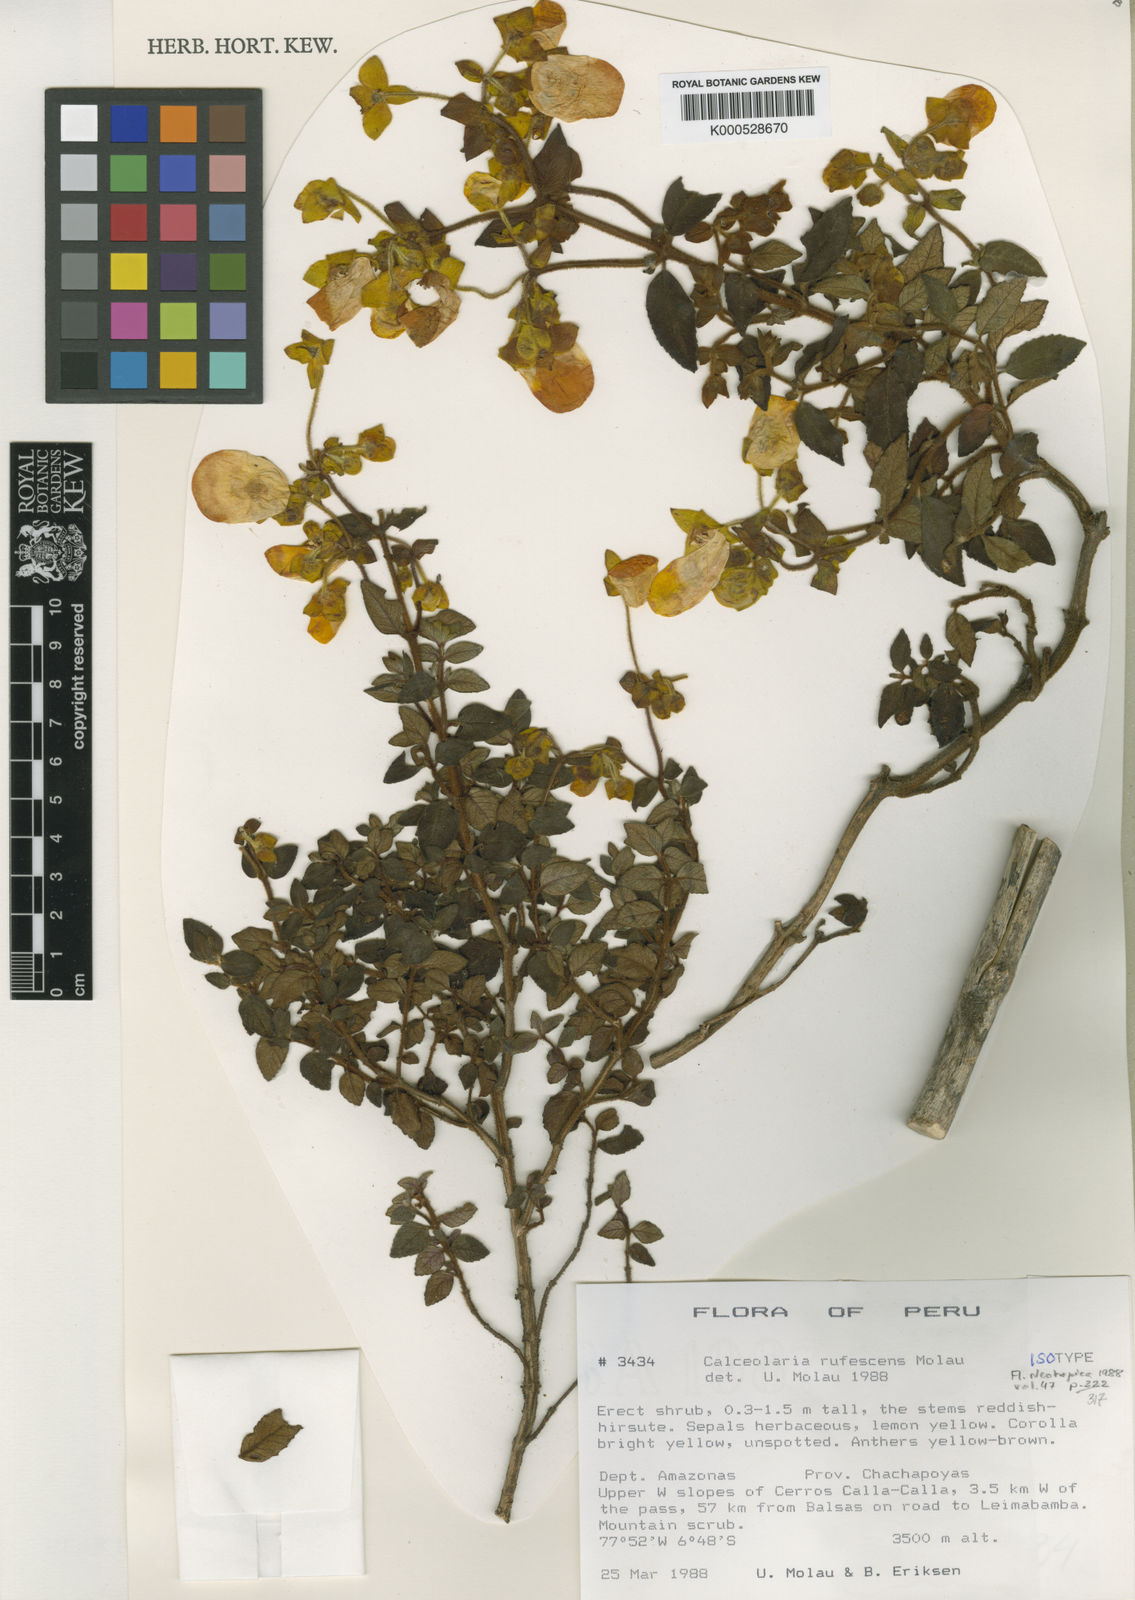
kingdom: Plantae
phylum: Tracheophyta
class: Magnoliopsida
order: Lamiales
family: Calceolariaceae
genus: Calceolaria
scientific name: Calceolaria rufescens
